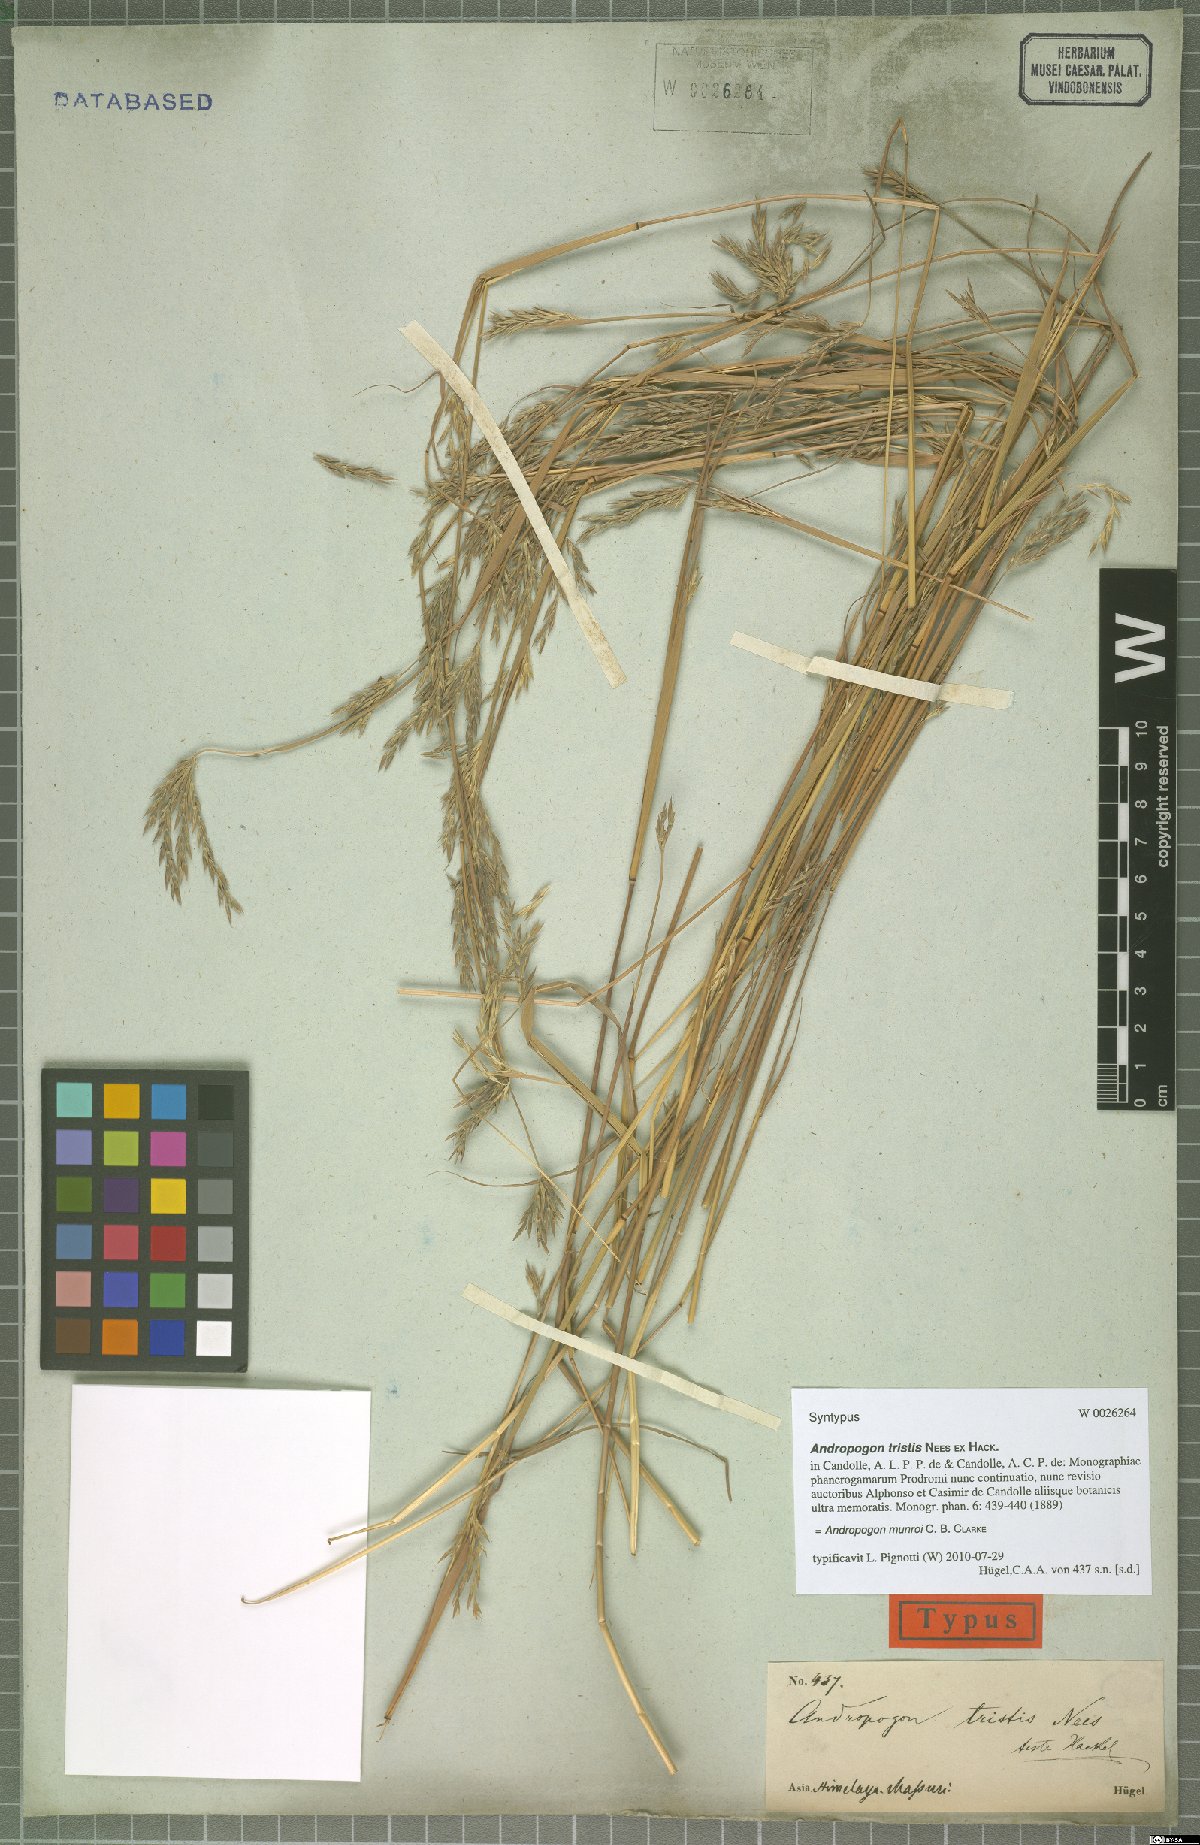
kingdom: Plantae
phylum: Tracheophyta
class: Liliopsida
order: Poales
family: Poaceae
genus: Andropogon
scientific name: Andropogon munroi
